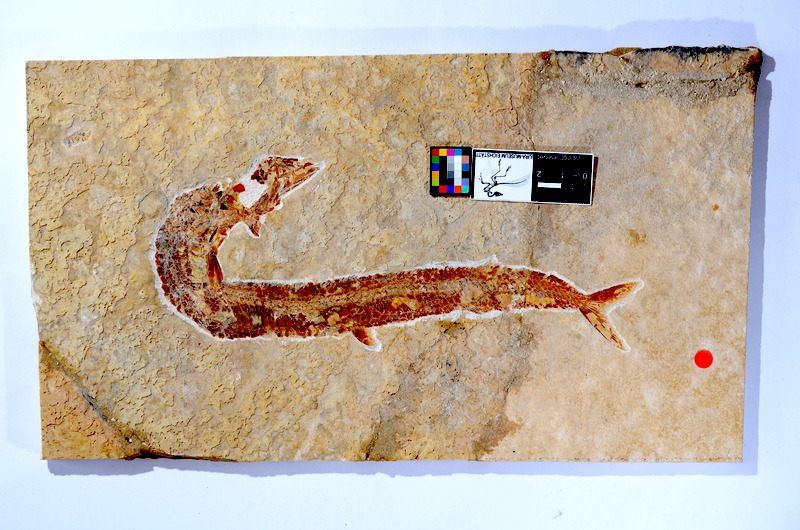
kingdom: Animalia
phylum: Chordata
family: Aspidorhynchidae
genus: Aspidorhynchus
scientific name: Aspidorhynchus acutirostris
